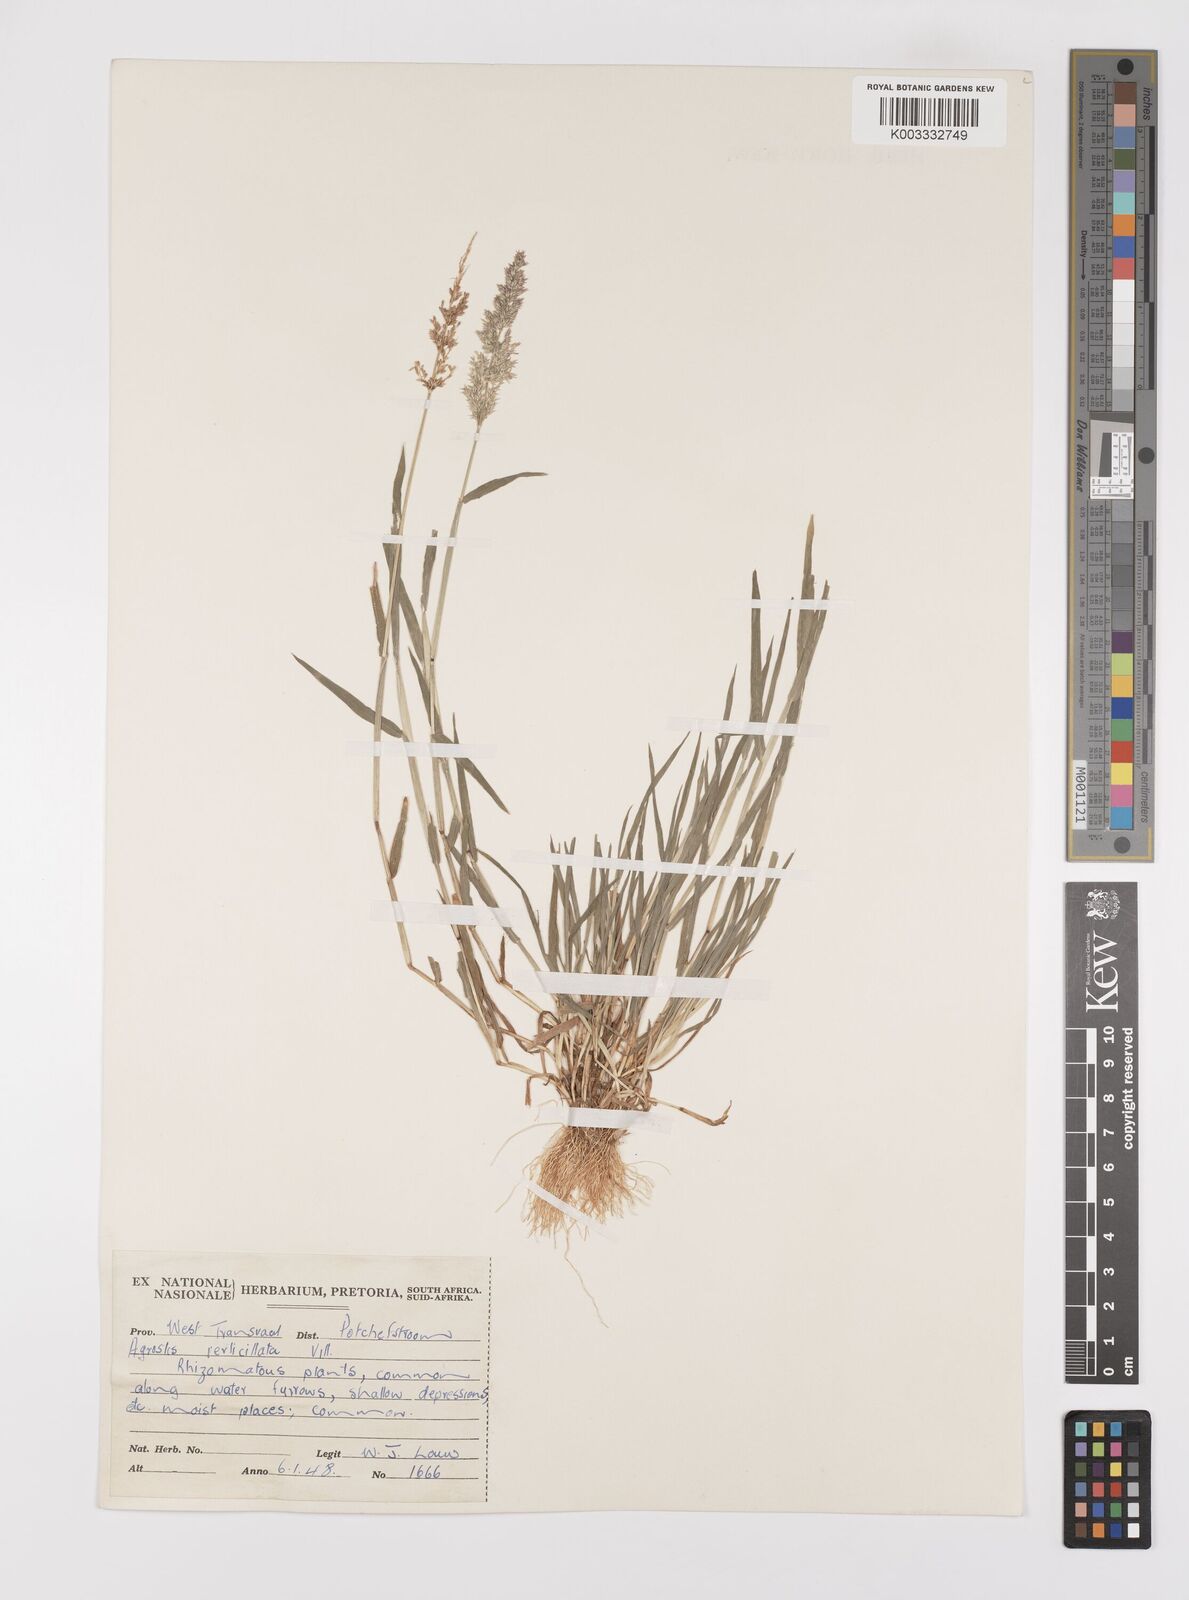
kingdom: Plantae
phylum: Tracheophyta
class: Liliopsida
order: Poales
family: Poaceae
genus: Polypogon
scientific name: Polypogon viridis
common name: Water bent
